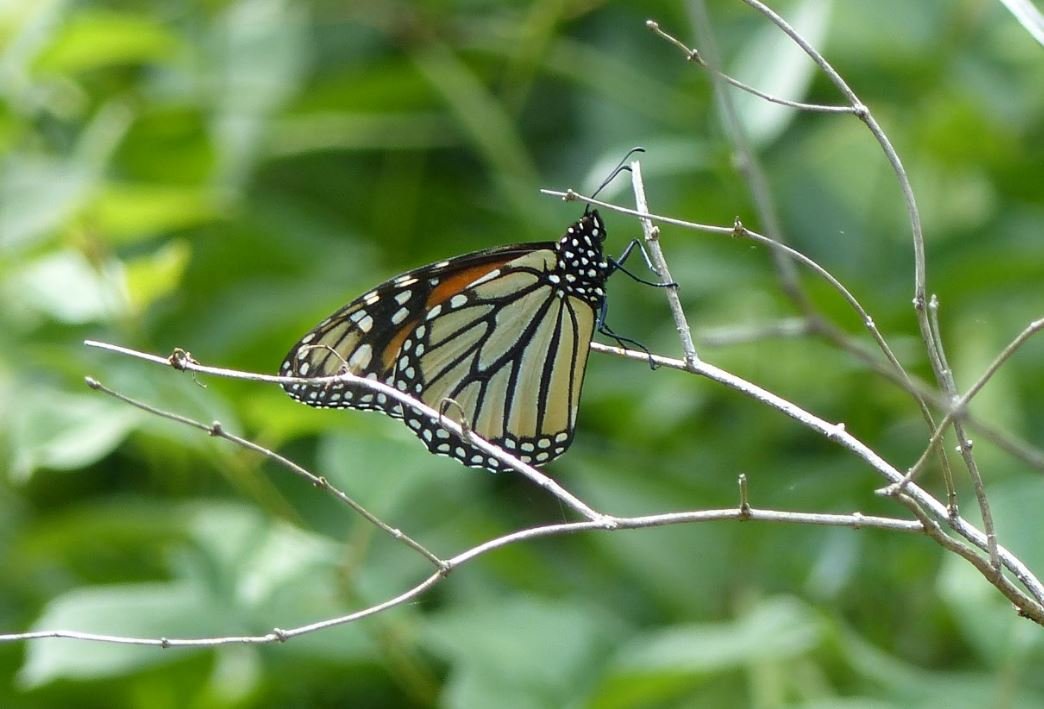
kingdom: Animalia
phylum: Arthropoda
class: Insecta
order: Lepidoptera
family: Nymphalidae
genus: Danaus
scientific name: Danaus plexippus
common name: Monarch
